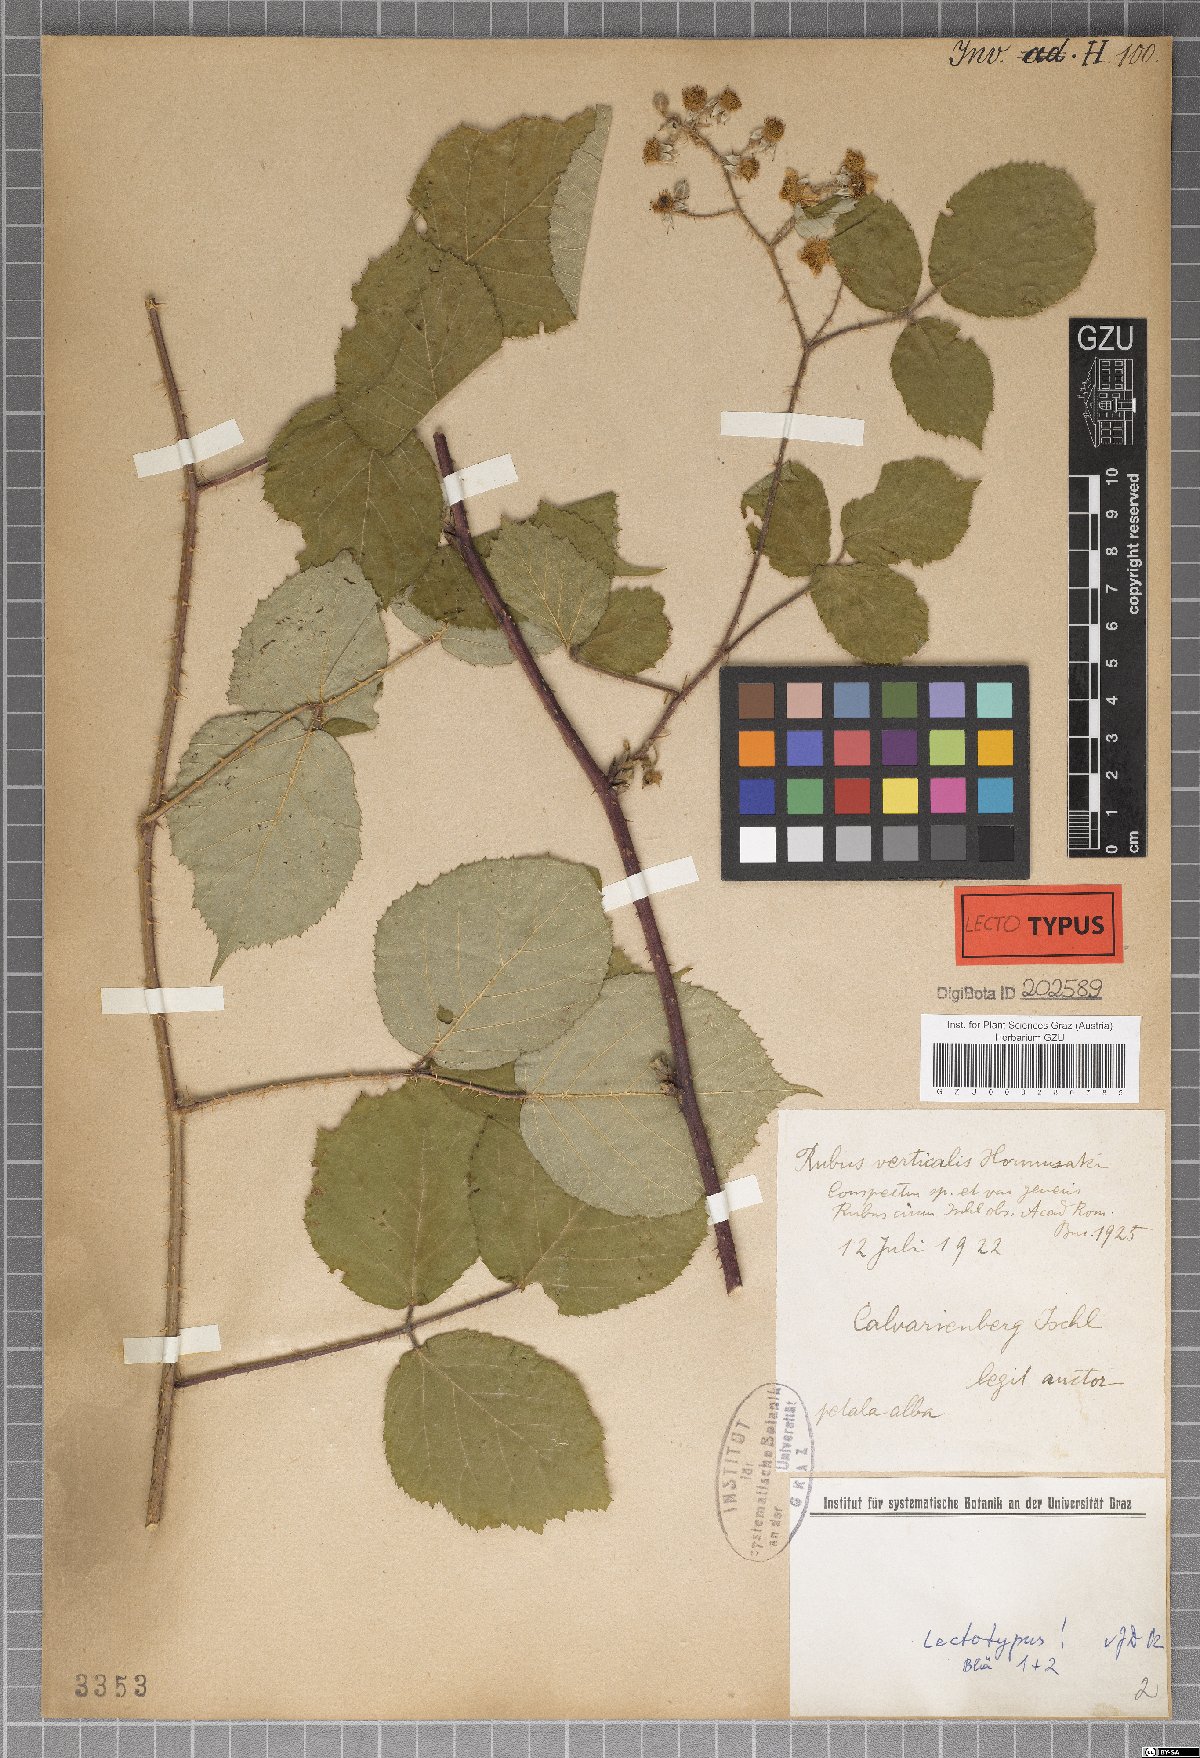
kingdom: Plantae
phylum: Tracheophyta
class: Magnoliopsida
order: Rosales
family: Rosaceae
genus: Rubus
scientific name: Rubus verticalis
